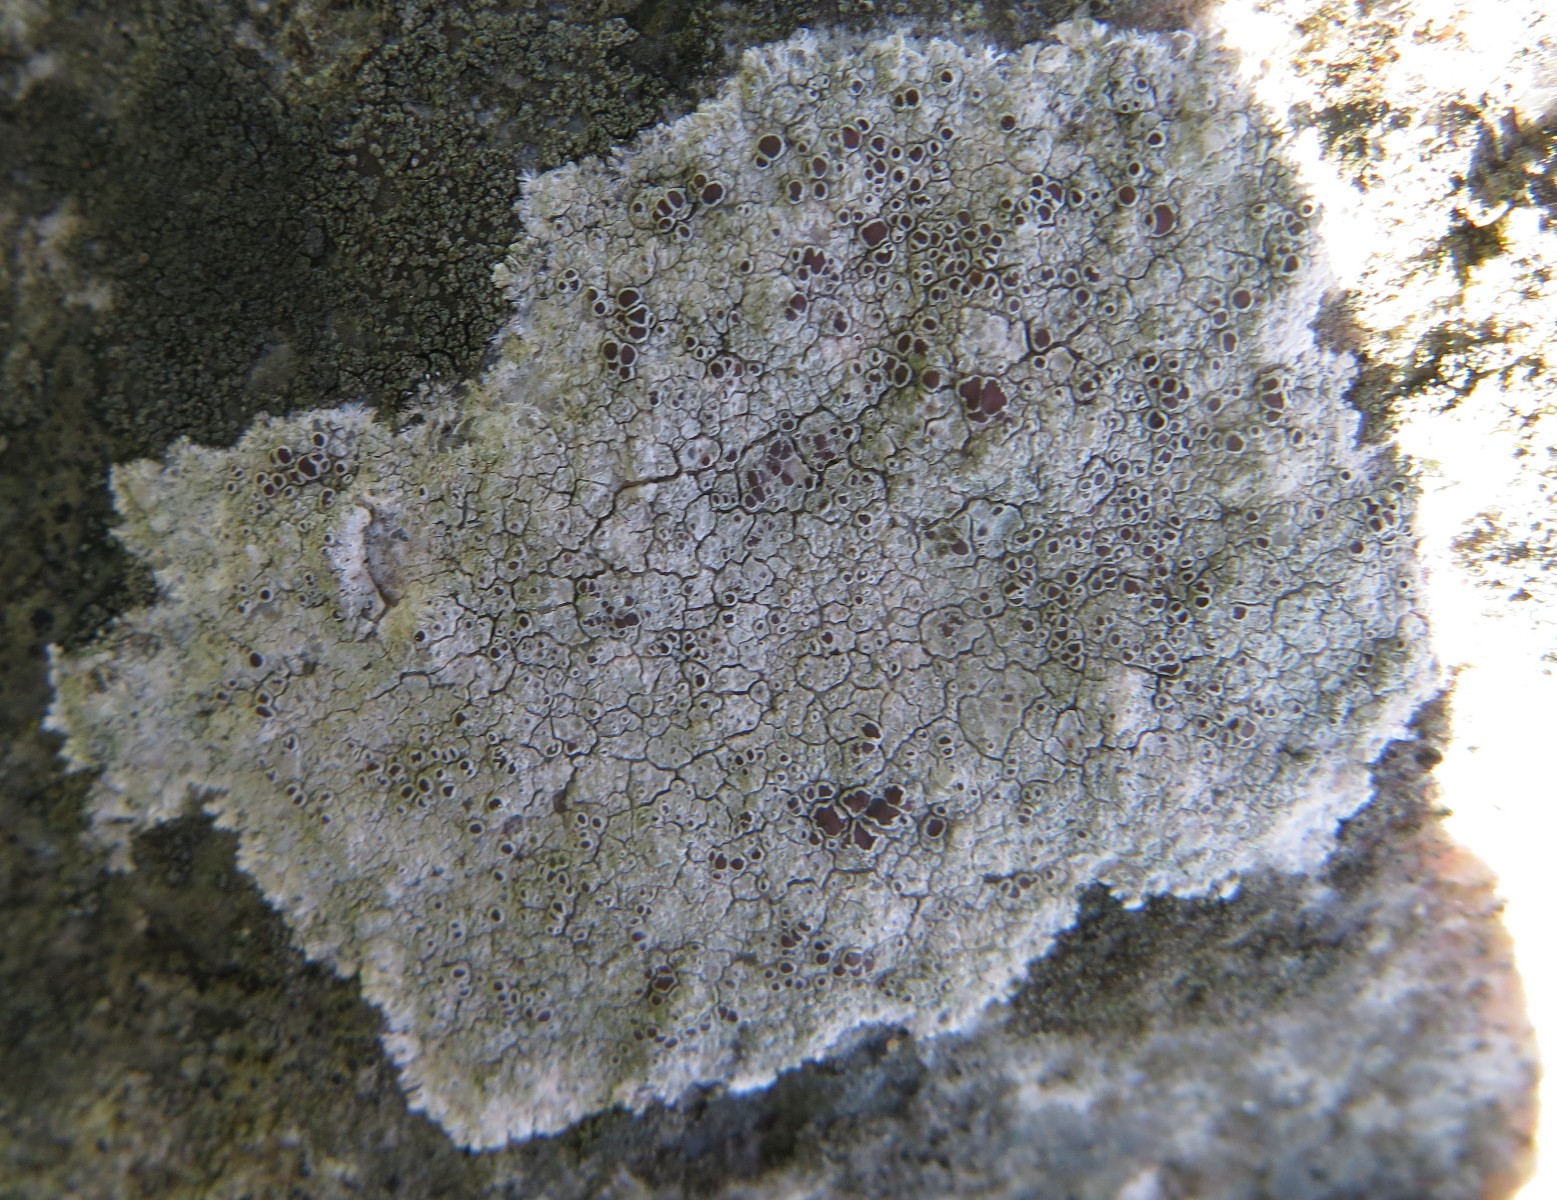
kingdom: Fungi
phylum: Ascomycota
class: Lecanoromycetes
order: Lecanorales
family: Lecanoraceae
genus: Lecanora
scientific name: Lecanora campestris
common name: mur-kantskivelav
